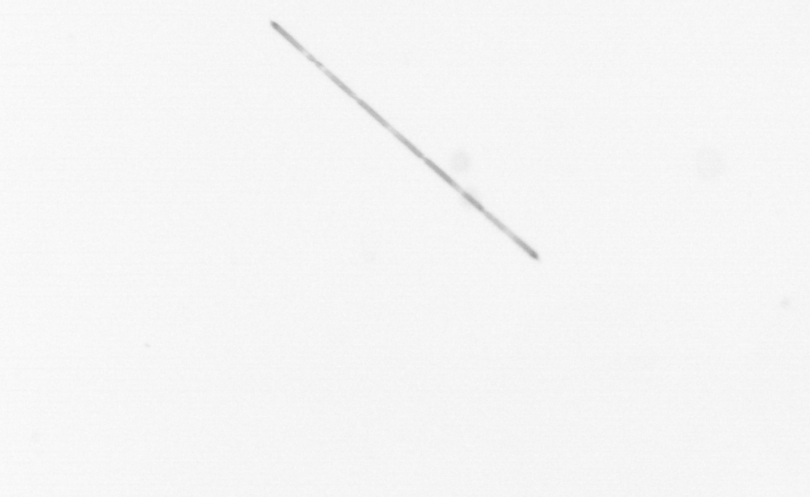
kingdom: Chromista
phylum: Ochrophyta
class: Bacillariophyceae
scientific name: Bacillariophyceae
